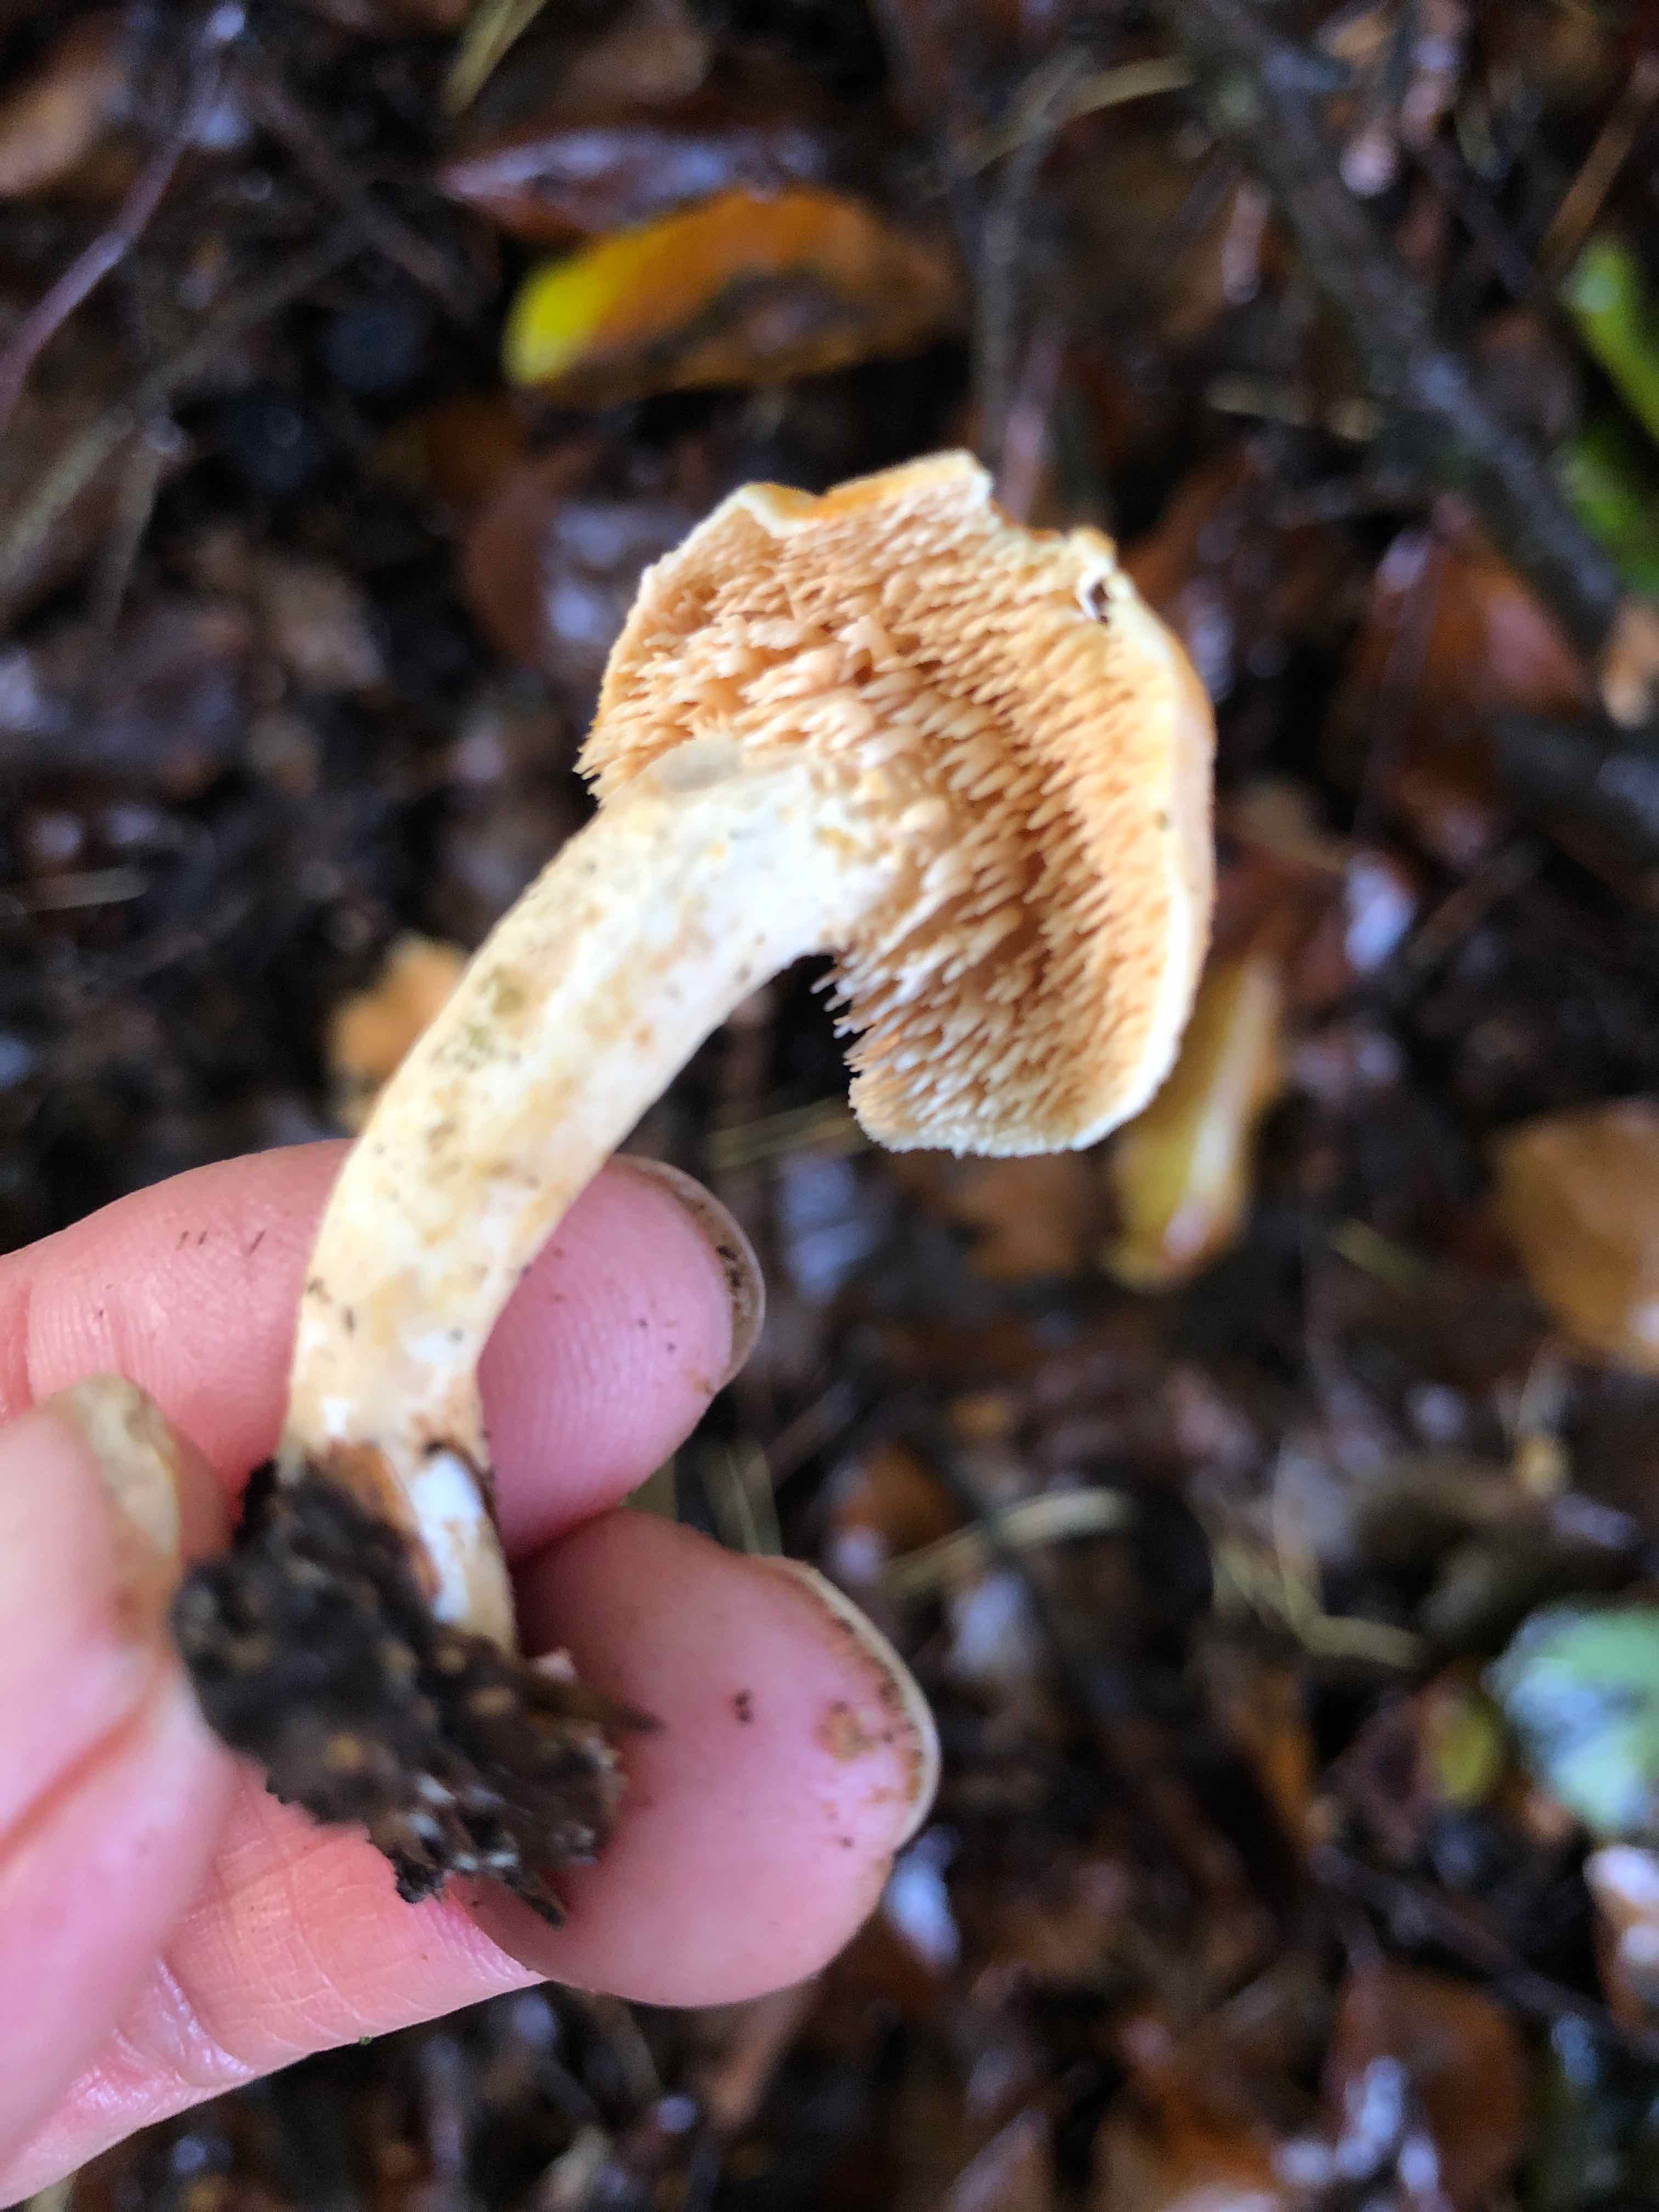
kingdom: Fungi
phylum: Basidiomycota
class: Agaricomycetes
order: Cantharellales
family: Hydnaceae
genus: Hydnum
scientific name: Hydnum
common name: pigsvamp
